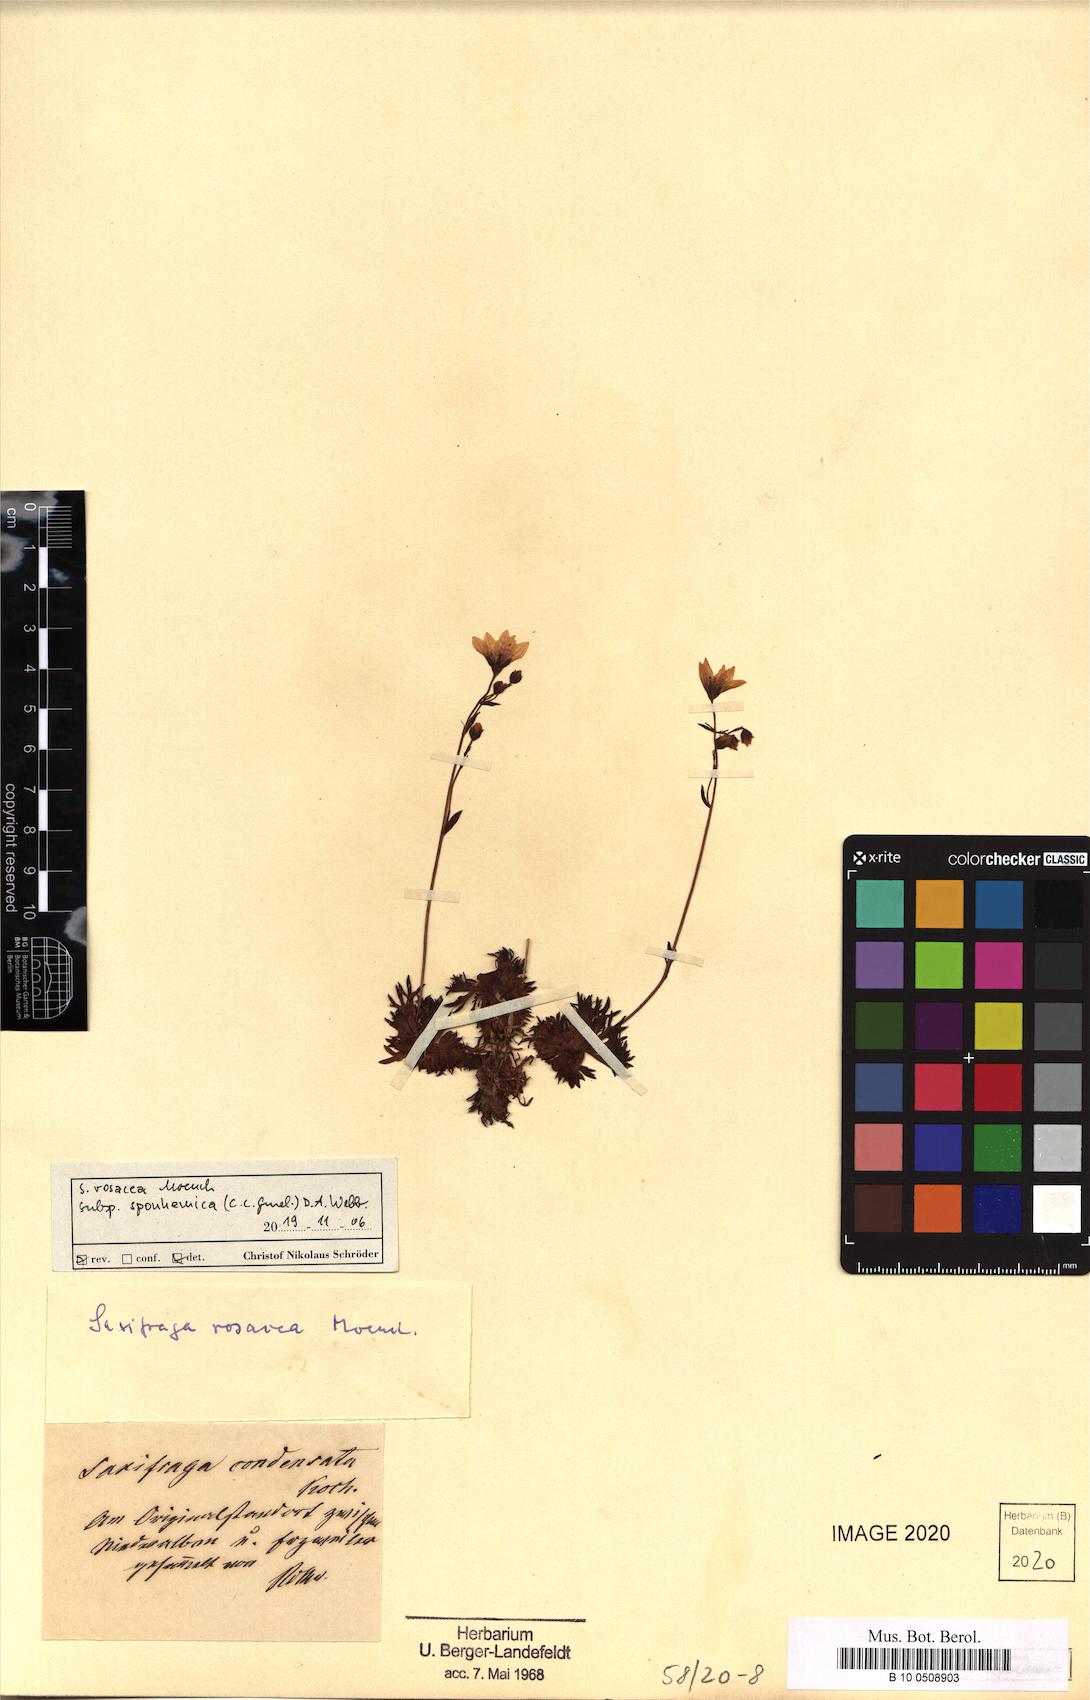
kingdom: Plantae
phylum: Tracheophyta
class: Magnoliopsida
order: Saxifragales
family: Saxifragaceae
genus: Saxifraga
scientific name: Saxifraga rosacea
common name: Irish saxifrage
